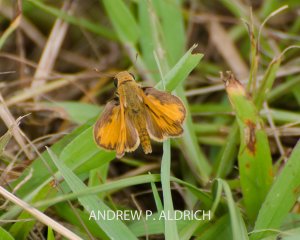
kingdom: Animalia
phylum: Arthropoda
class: Insecta
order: Lepidoptera
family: Hesperiidae
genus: Hylephila
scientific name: Hylephila phyleus
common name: Fiery Skipper
